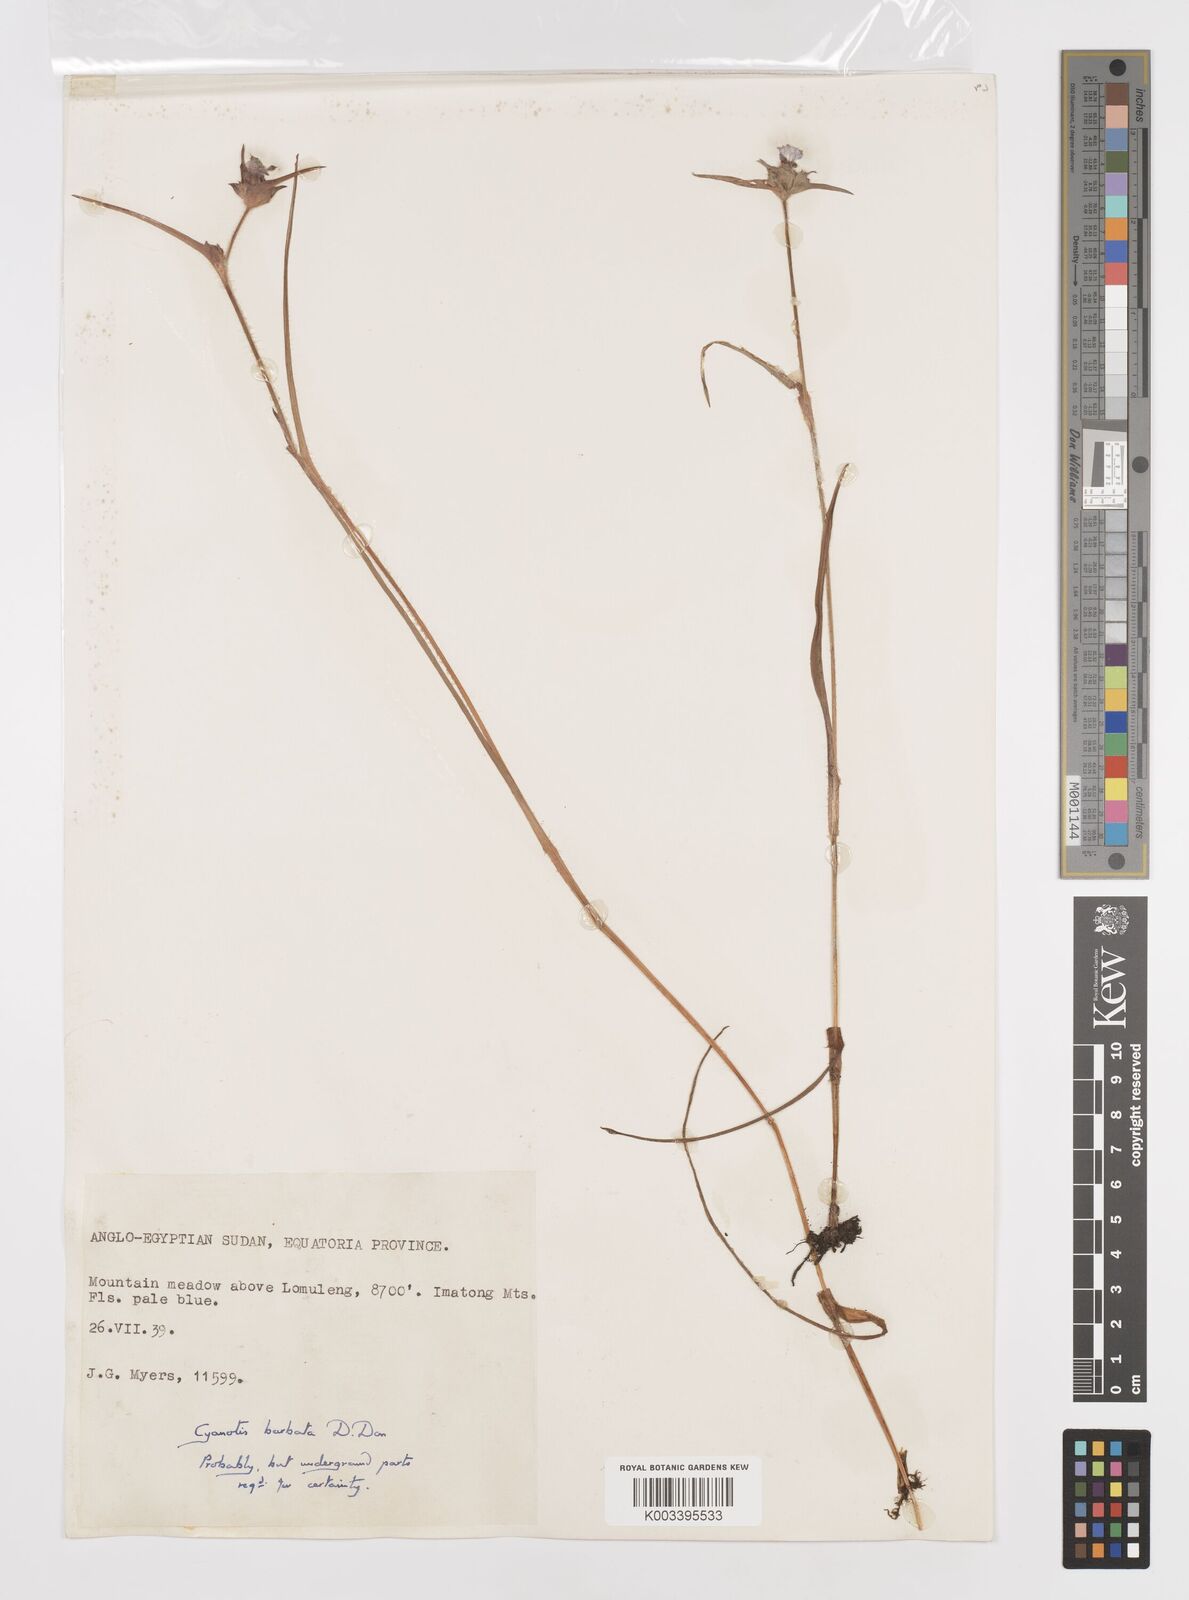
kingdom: Plantae
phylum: Tracheophyta
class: Liliopsida
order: Commelinales
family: Commelinaceae
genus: Cyanotis
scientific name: Cyanotis vaga
